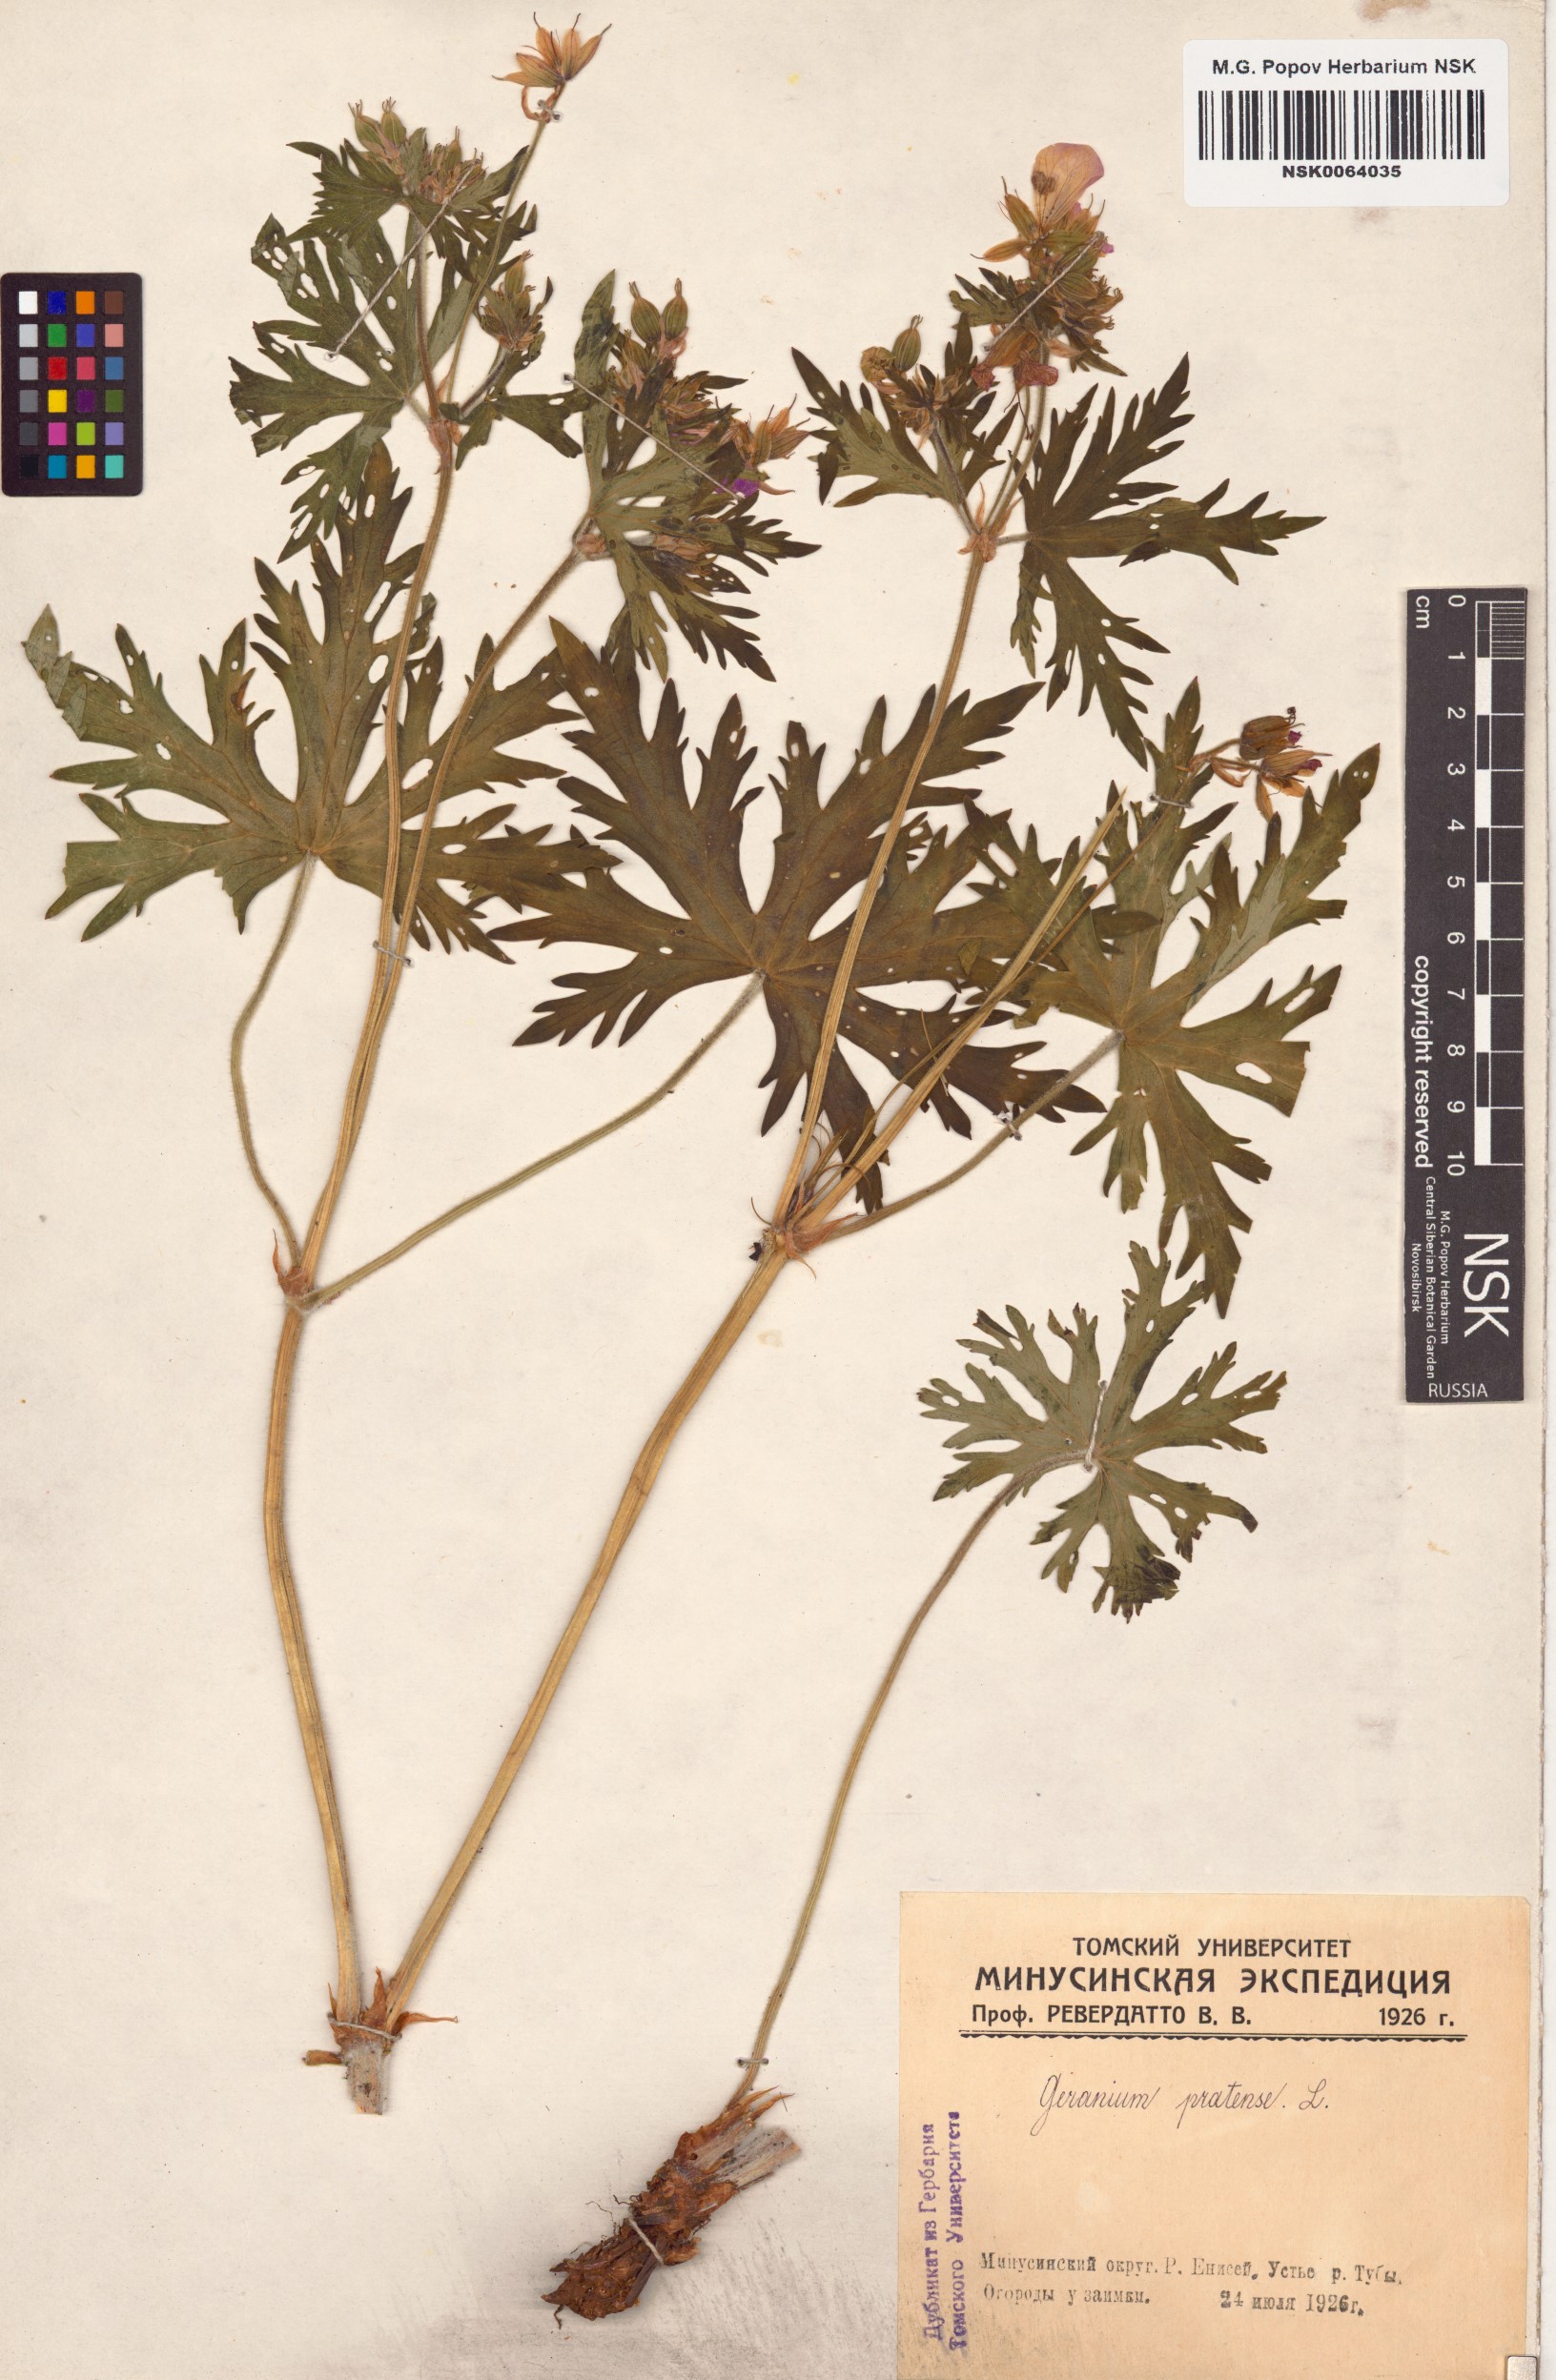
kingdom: Plantae
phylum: Tracheophyta
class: Magnoliopsida
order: Geraniales
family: Geraniaceae
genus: Geranium
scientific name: Geranium pratense
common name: Meadow crane's-bill
